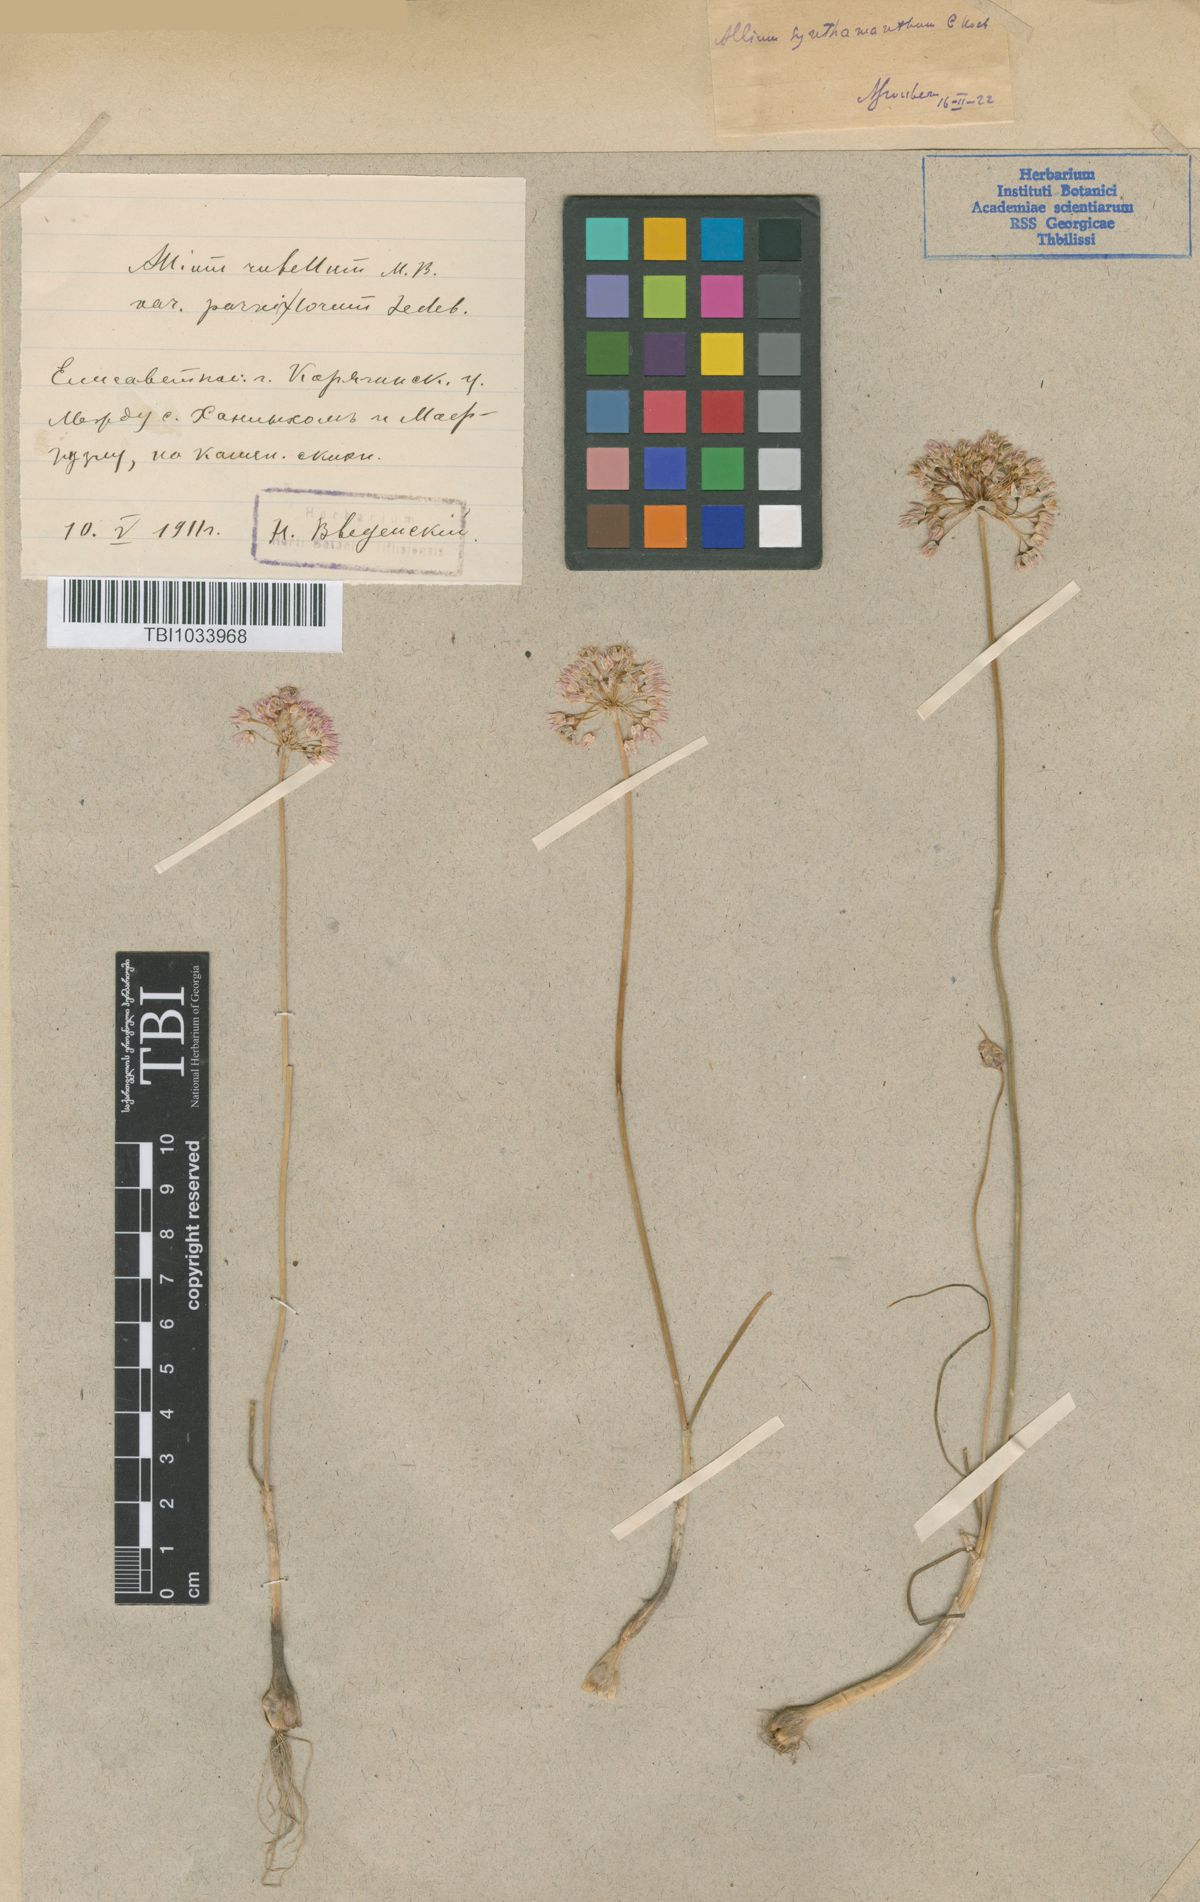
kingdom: Plantae
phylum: Tracheophyta
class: Liliopsida
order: Asparagales
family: Amaryllidaceae
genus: Allium
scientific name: Allium rubellum
